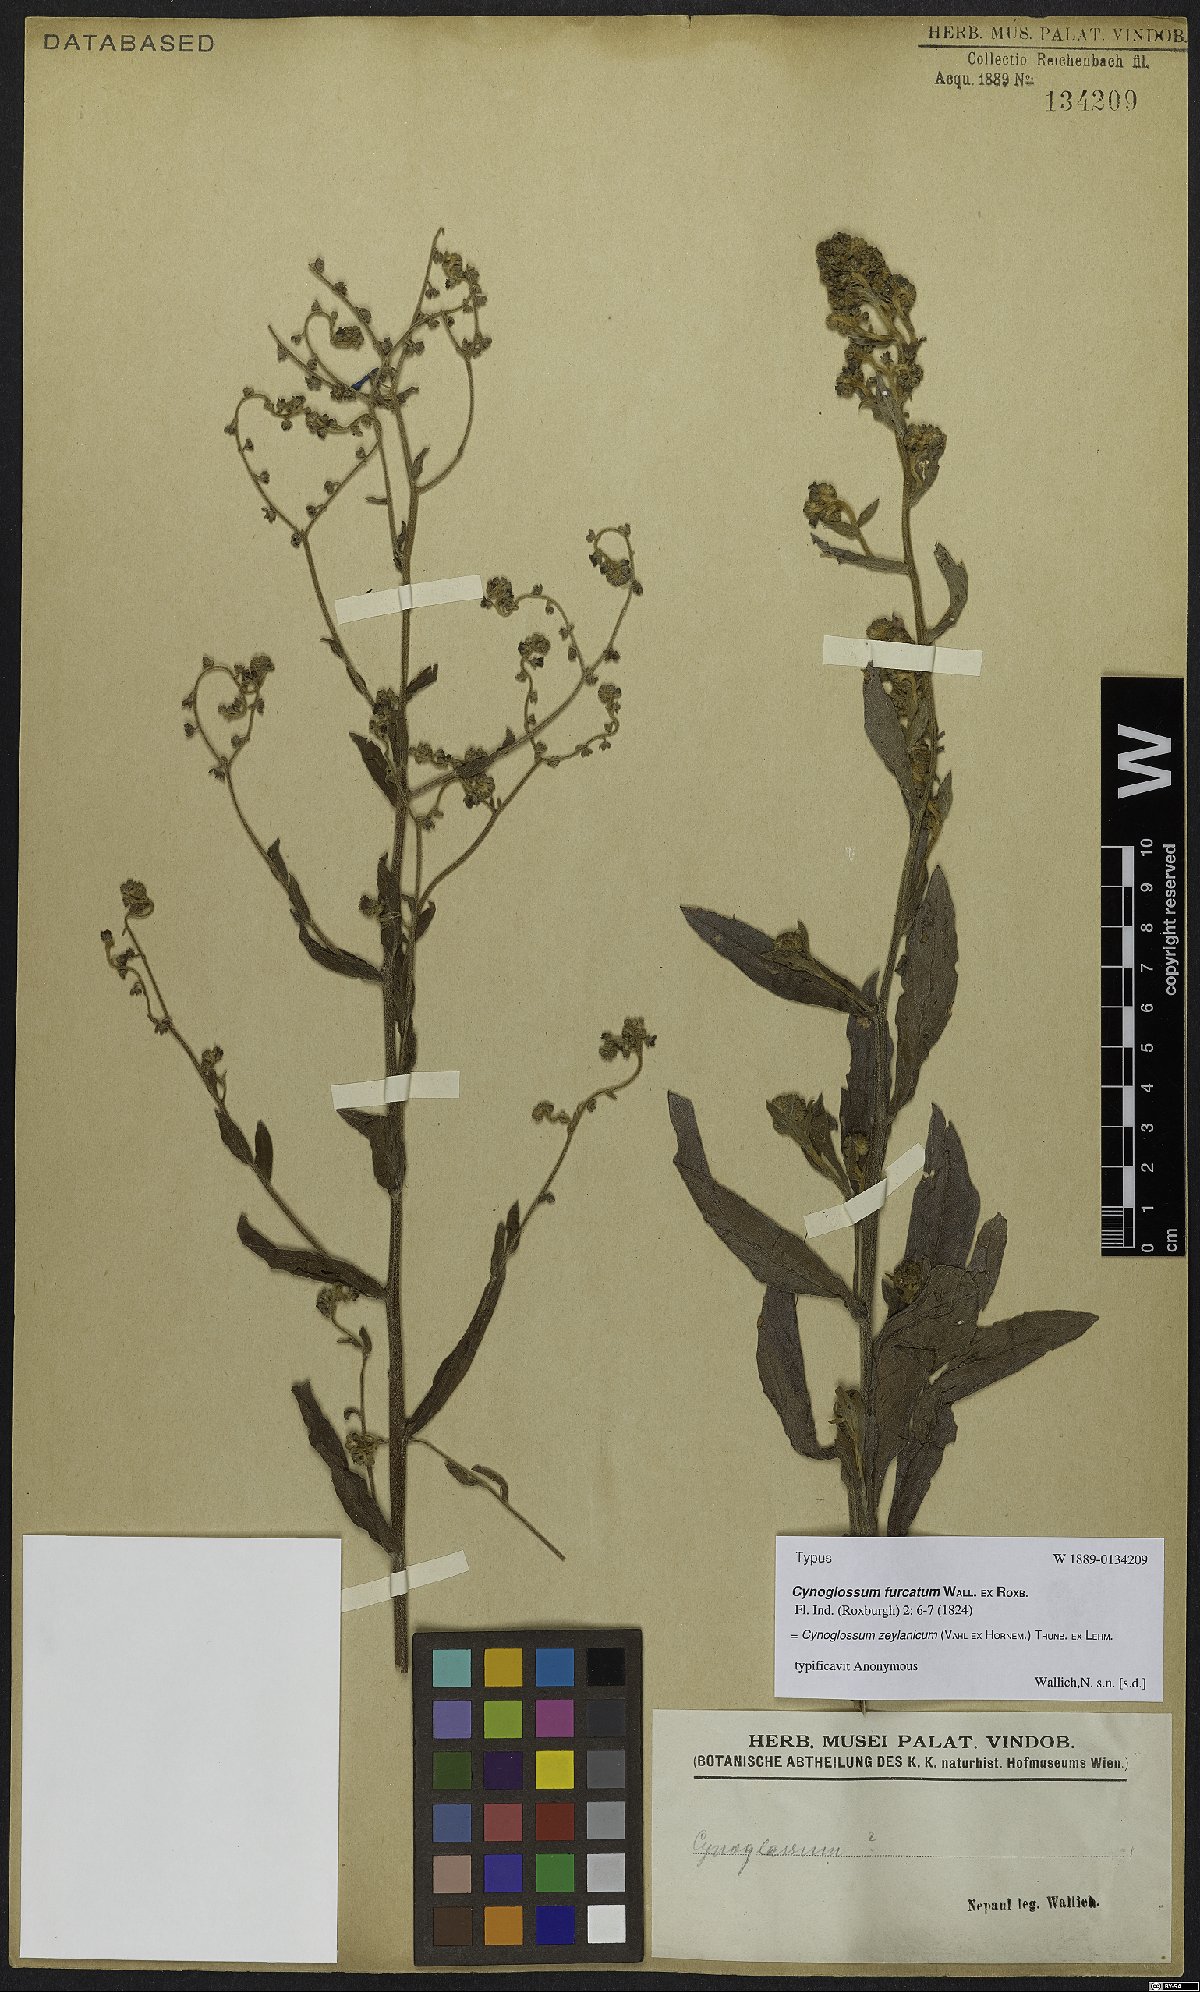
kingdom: Plantae
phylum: Tracheophyta
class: Magnoliopsida
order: Boraginales
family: Boraginaceae
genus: Cynoglossum
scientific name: Cynoglossum zeylanicum
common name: Ceylon hound's tongue
